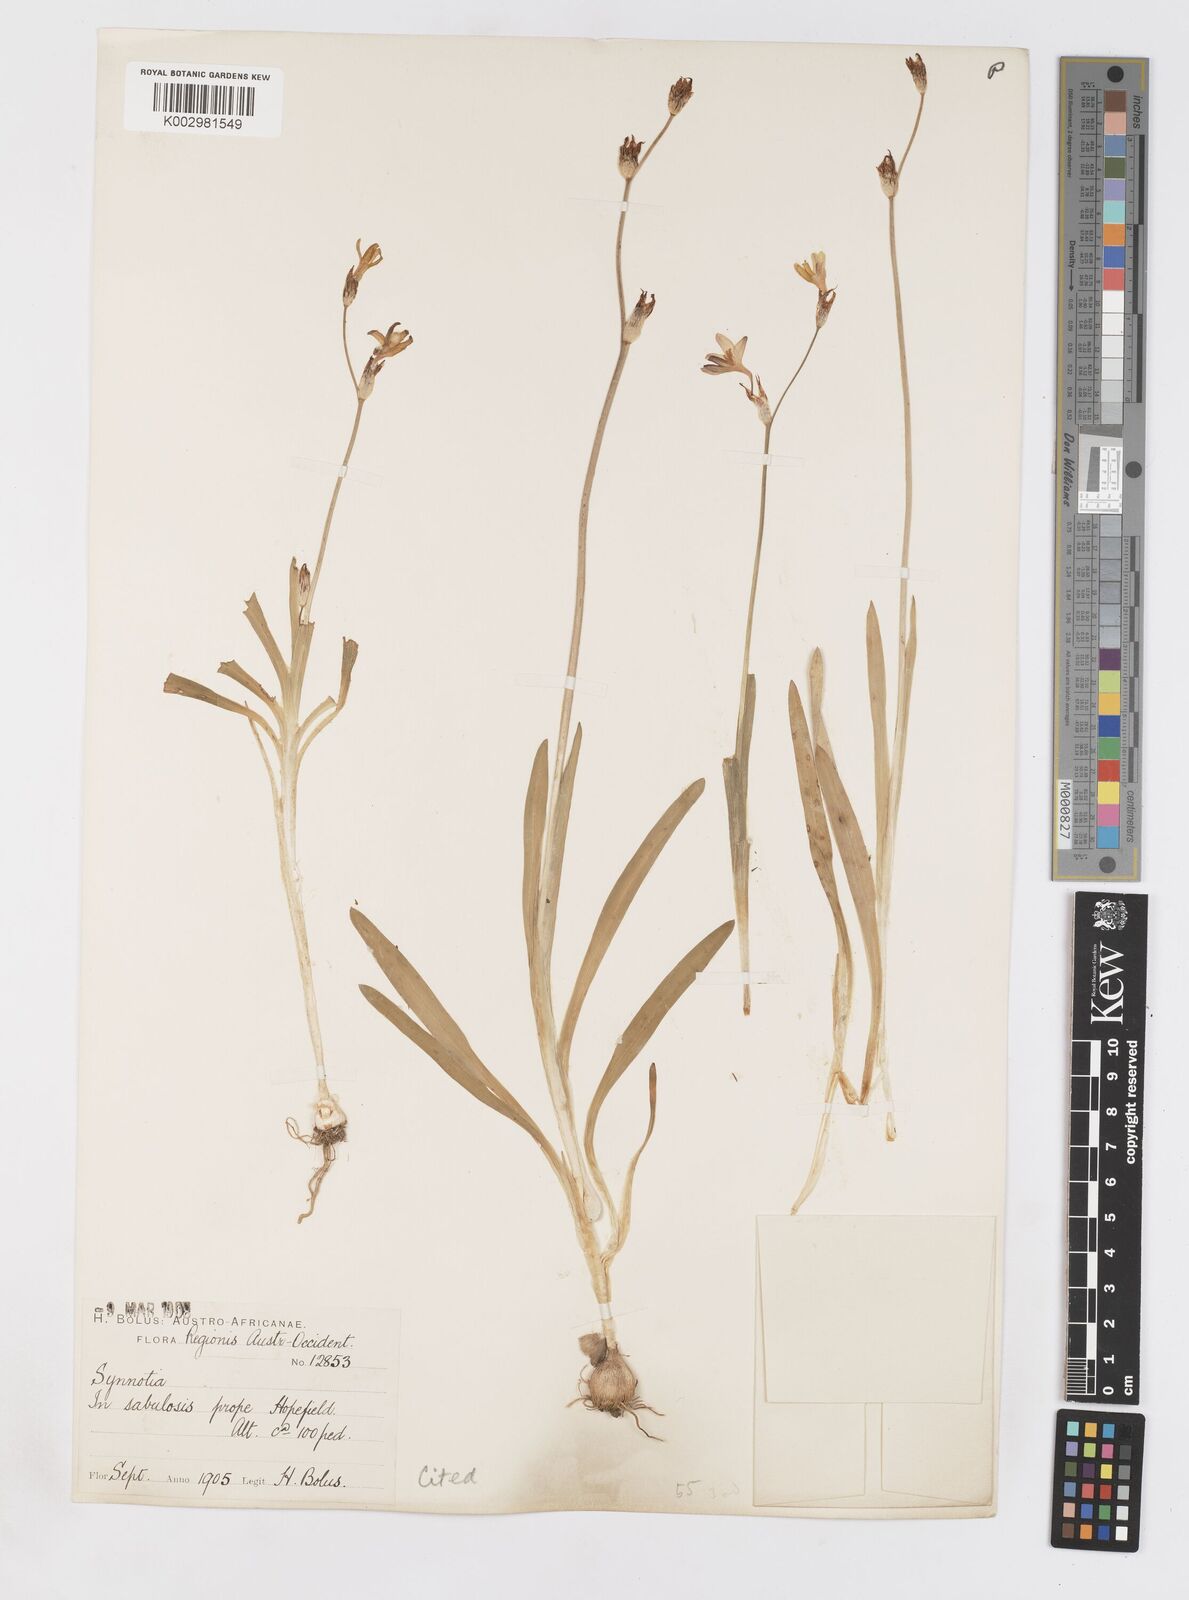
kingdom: Plantae
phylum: Tracheophyta
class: Liliopsida
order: Asparagales
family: Iridaceae
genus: Sparaxis
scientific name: Sparaxis parviflora
